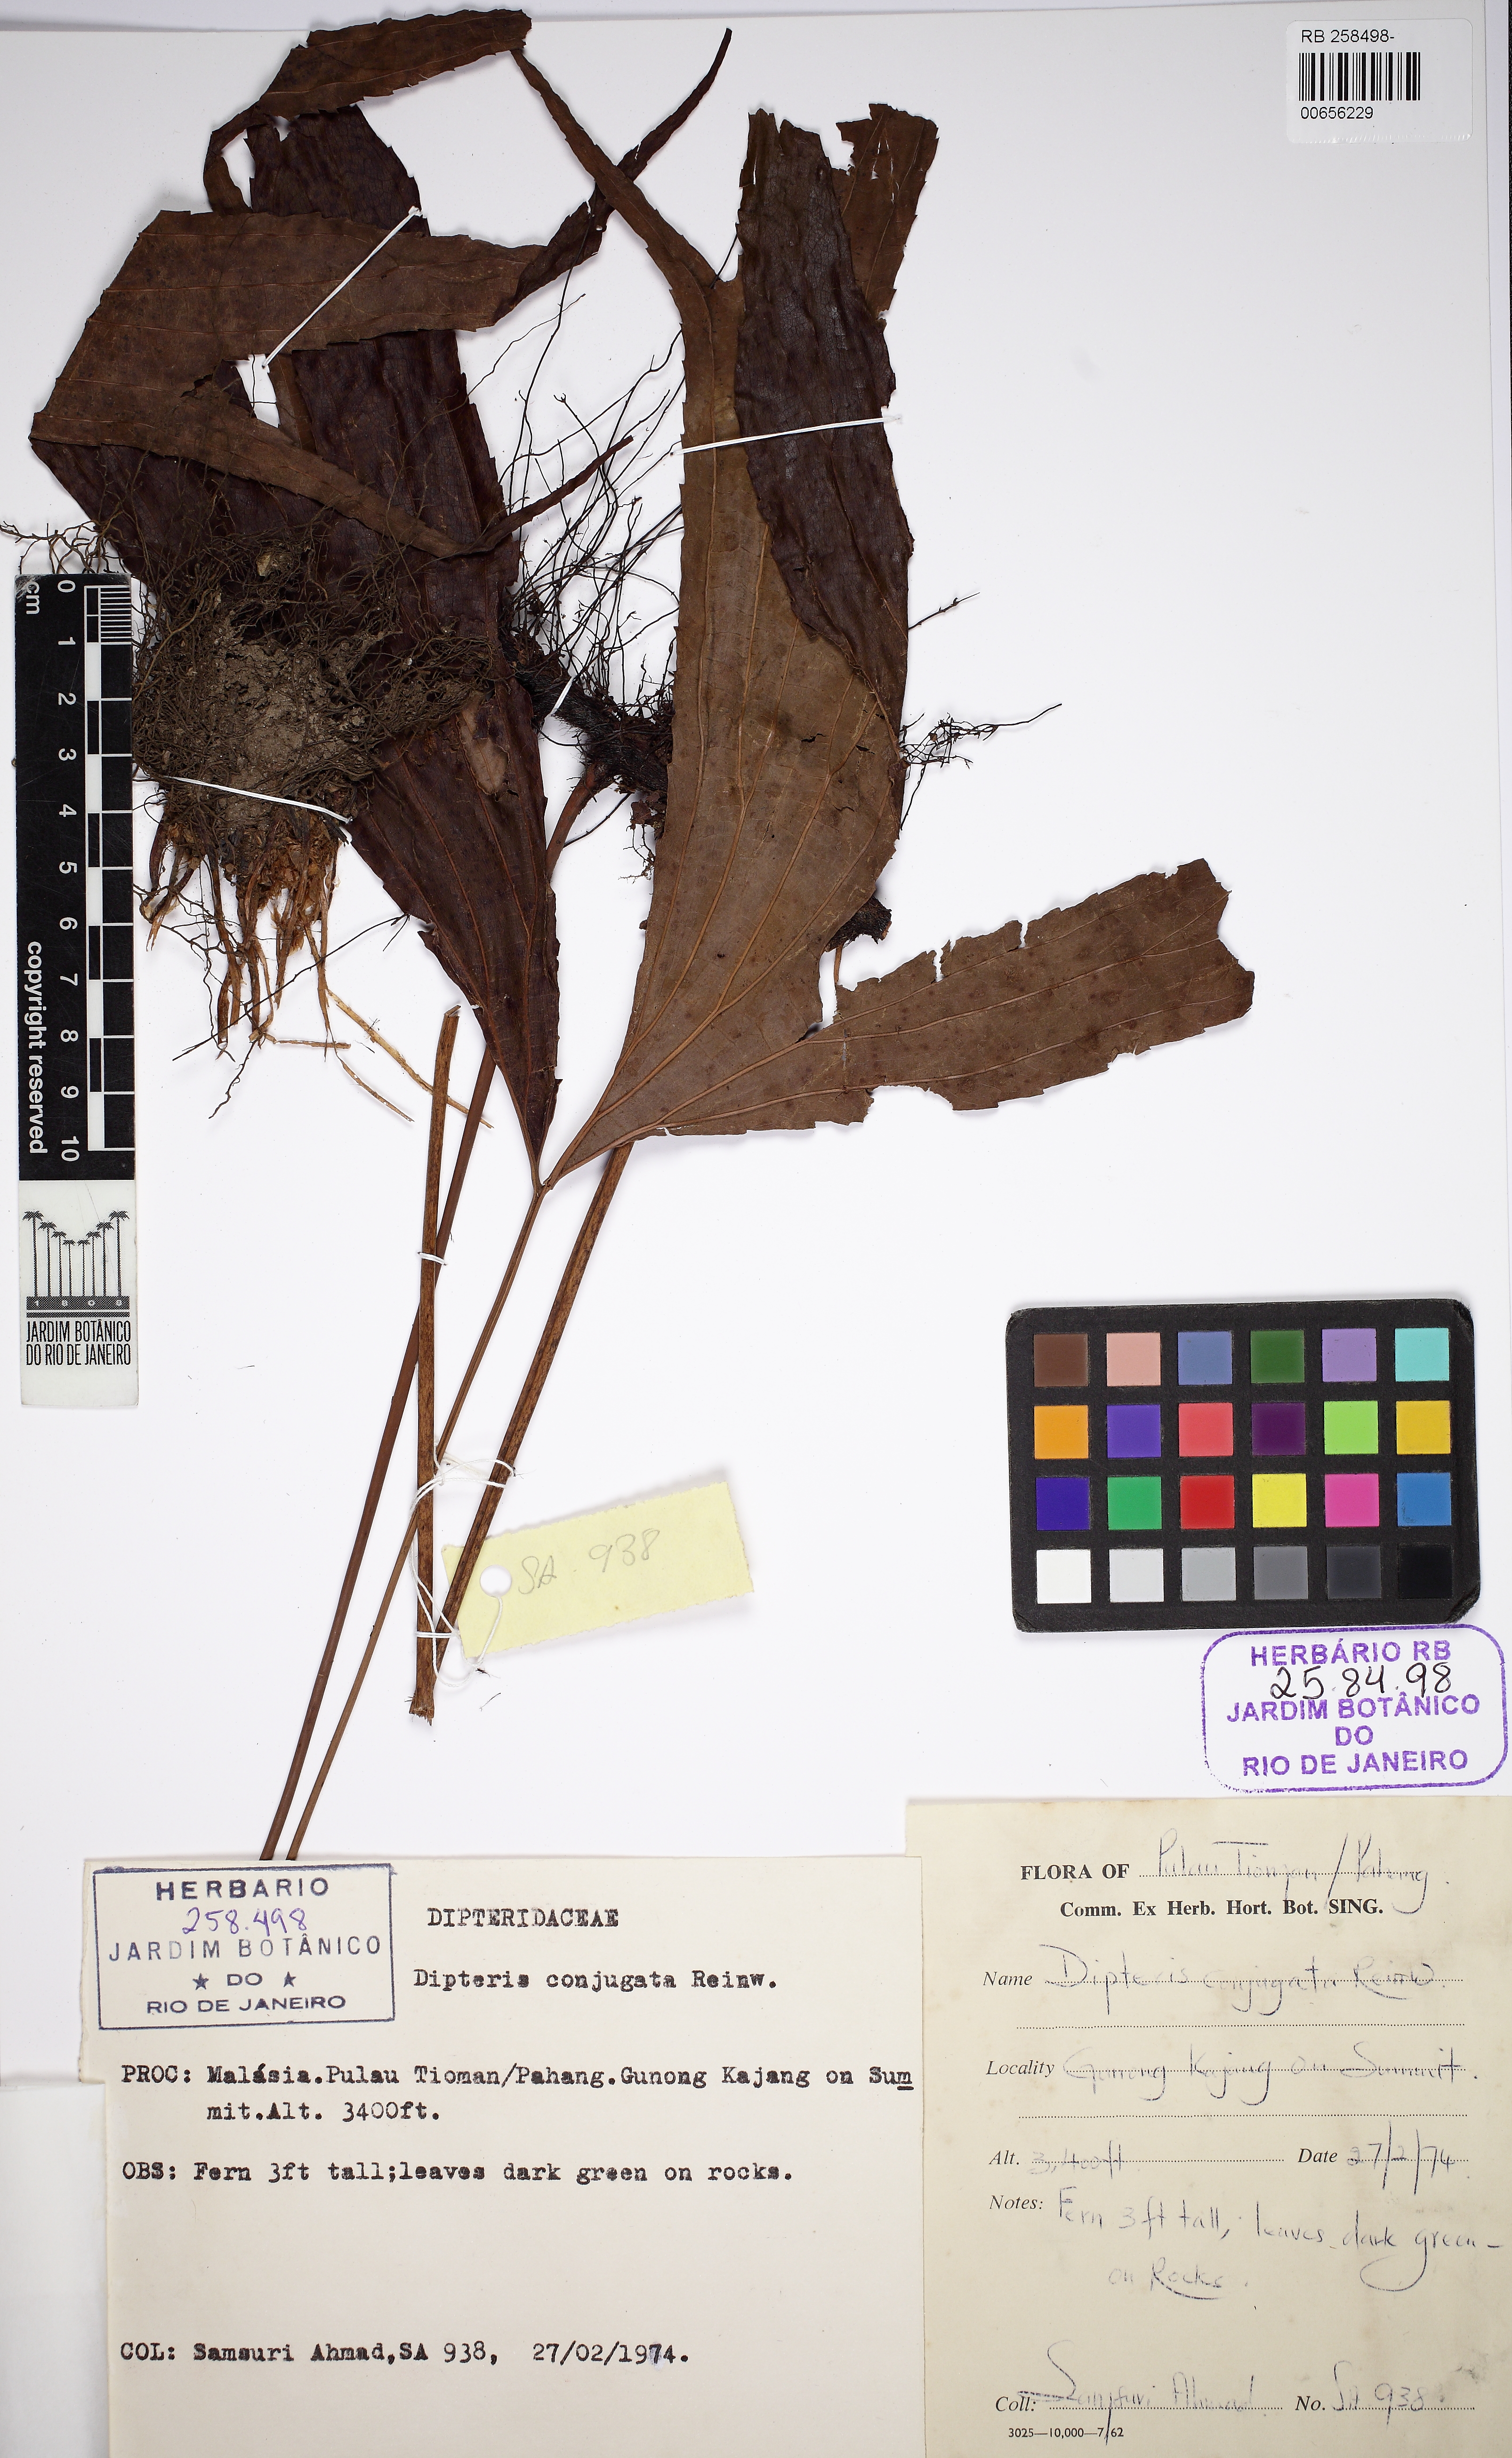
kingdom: Plantae
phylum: Tracheophyta
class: Polypodiopsida
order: Gleicheniales
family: Dipteridaceae
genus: Dipteris
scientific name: Dipteris conjugata
